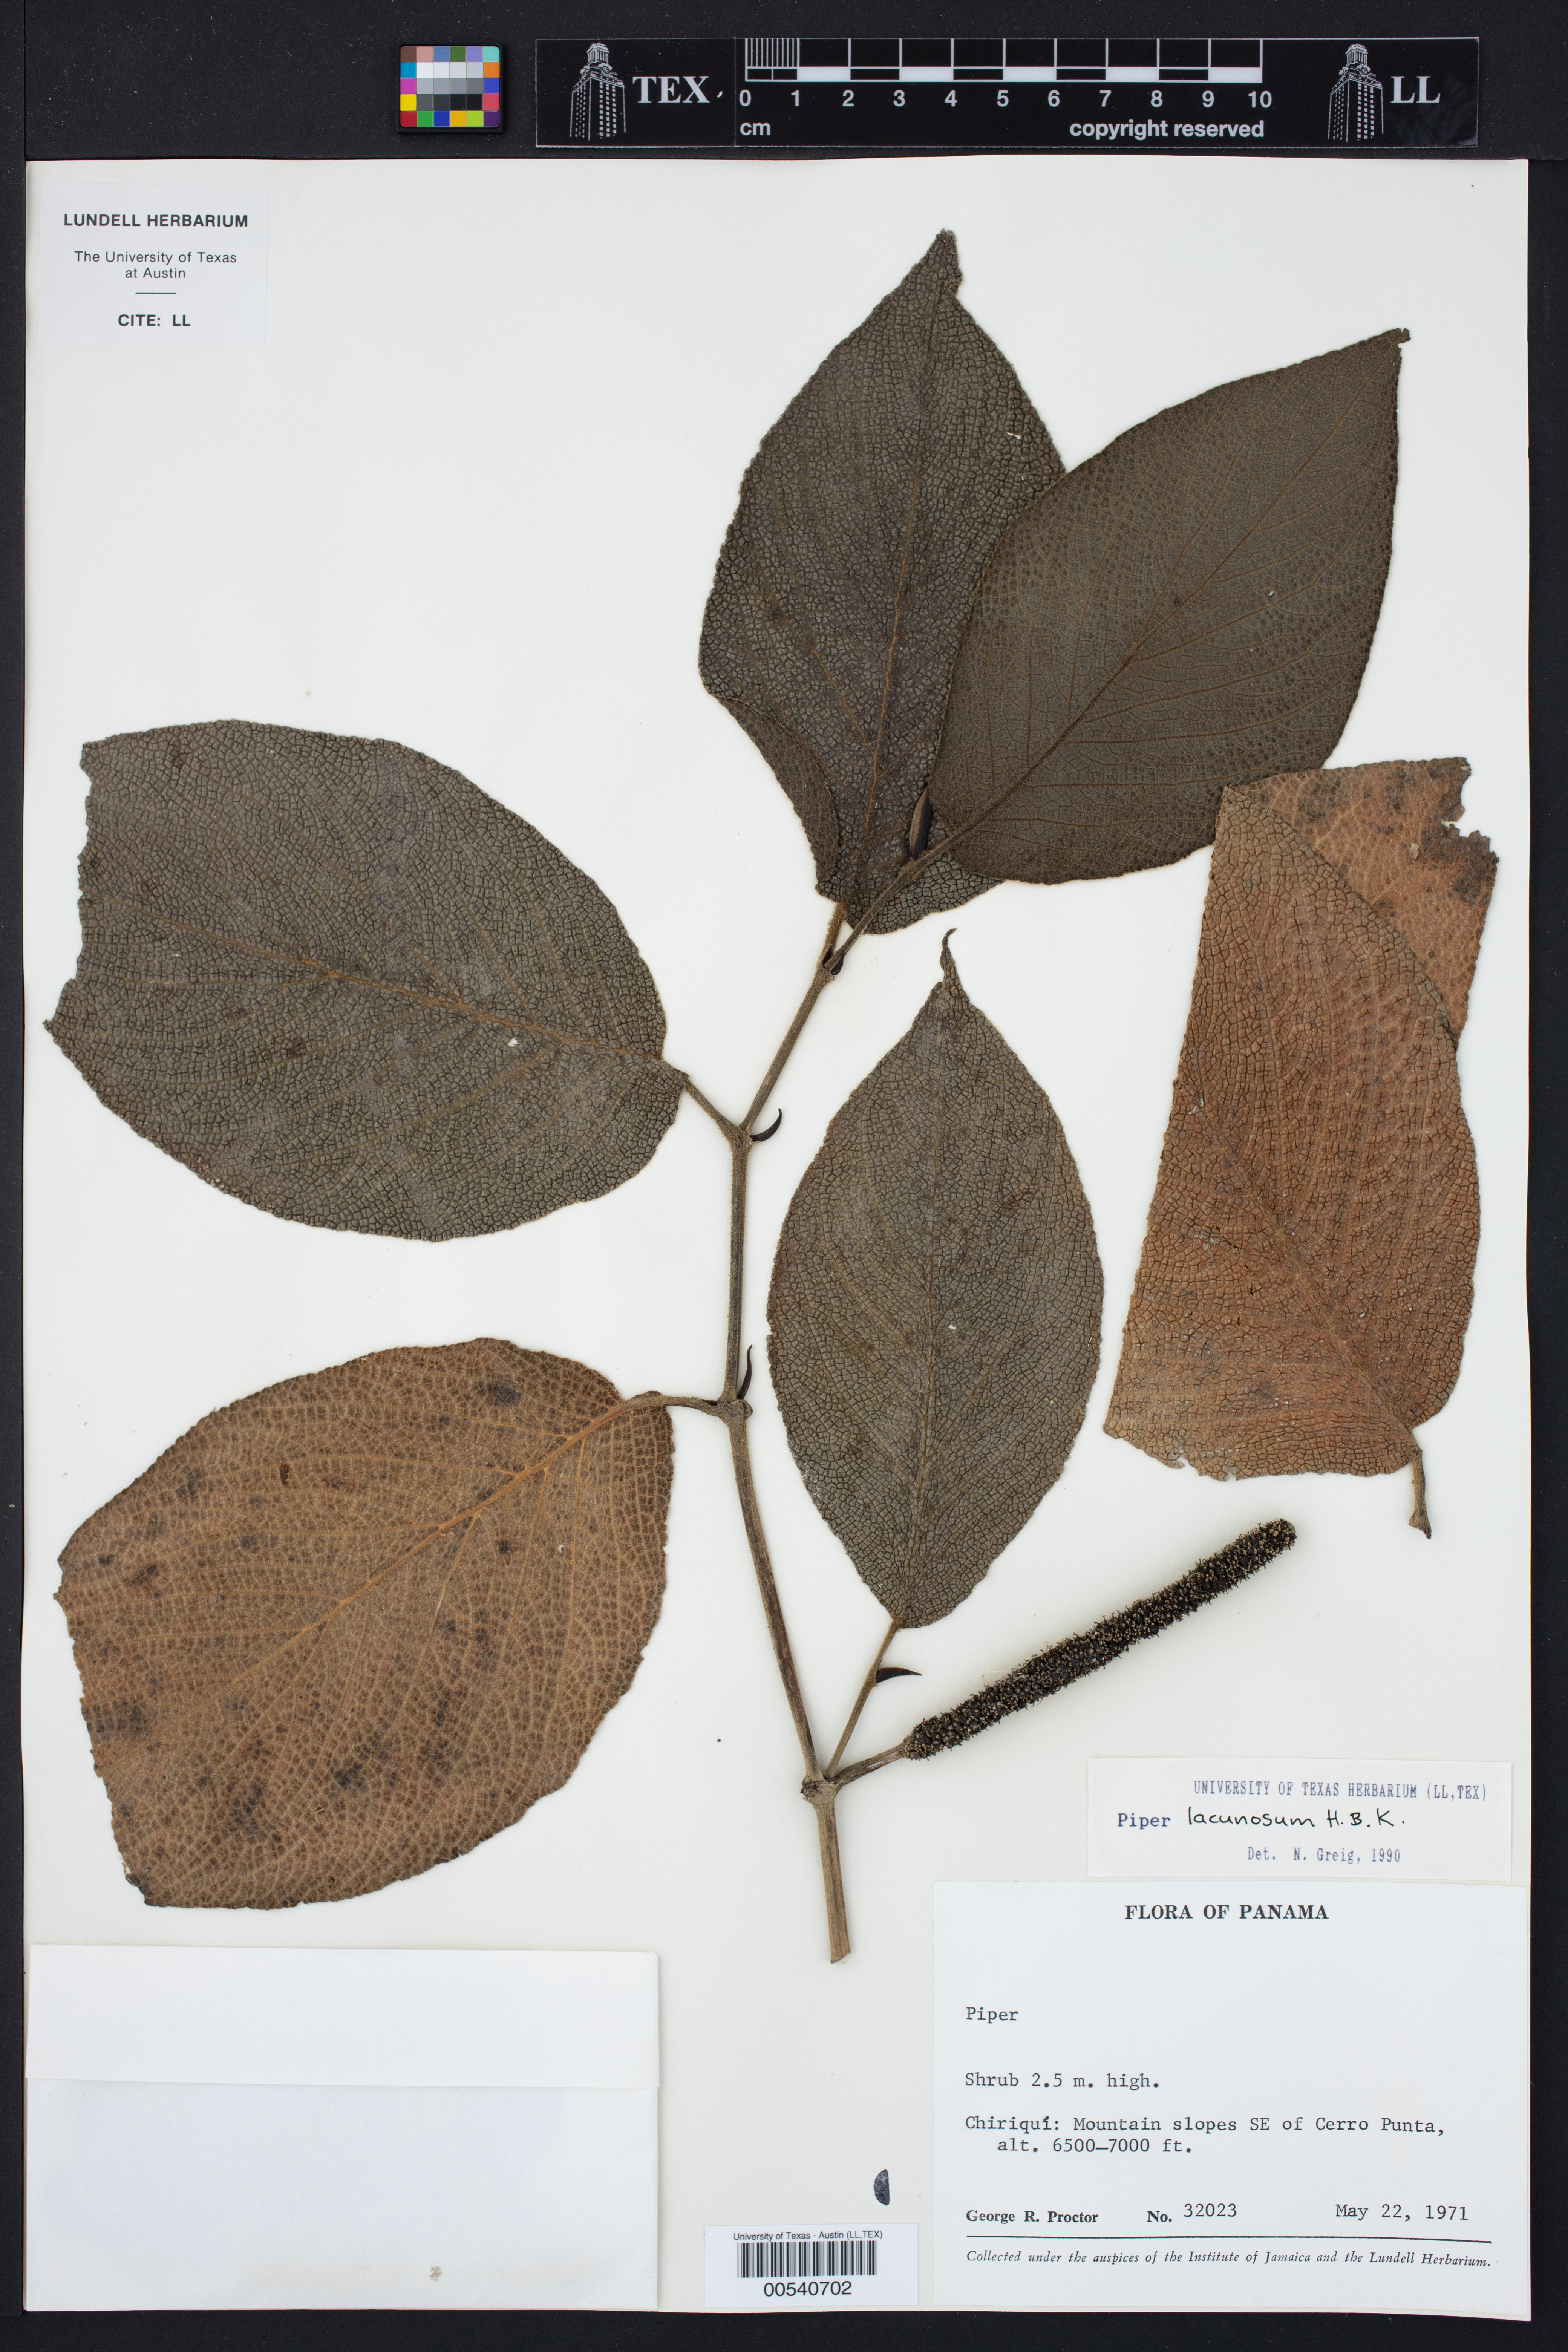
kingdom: Plantae
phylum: Tracheophyta
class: Magnoliopsida
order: Piperales
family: Piperaceae
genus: Piper
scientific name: Piper lacunosum
